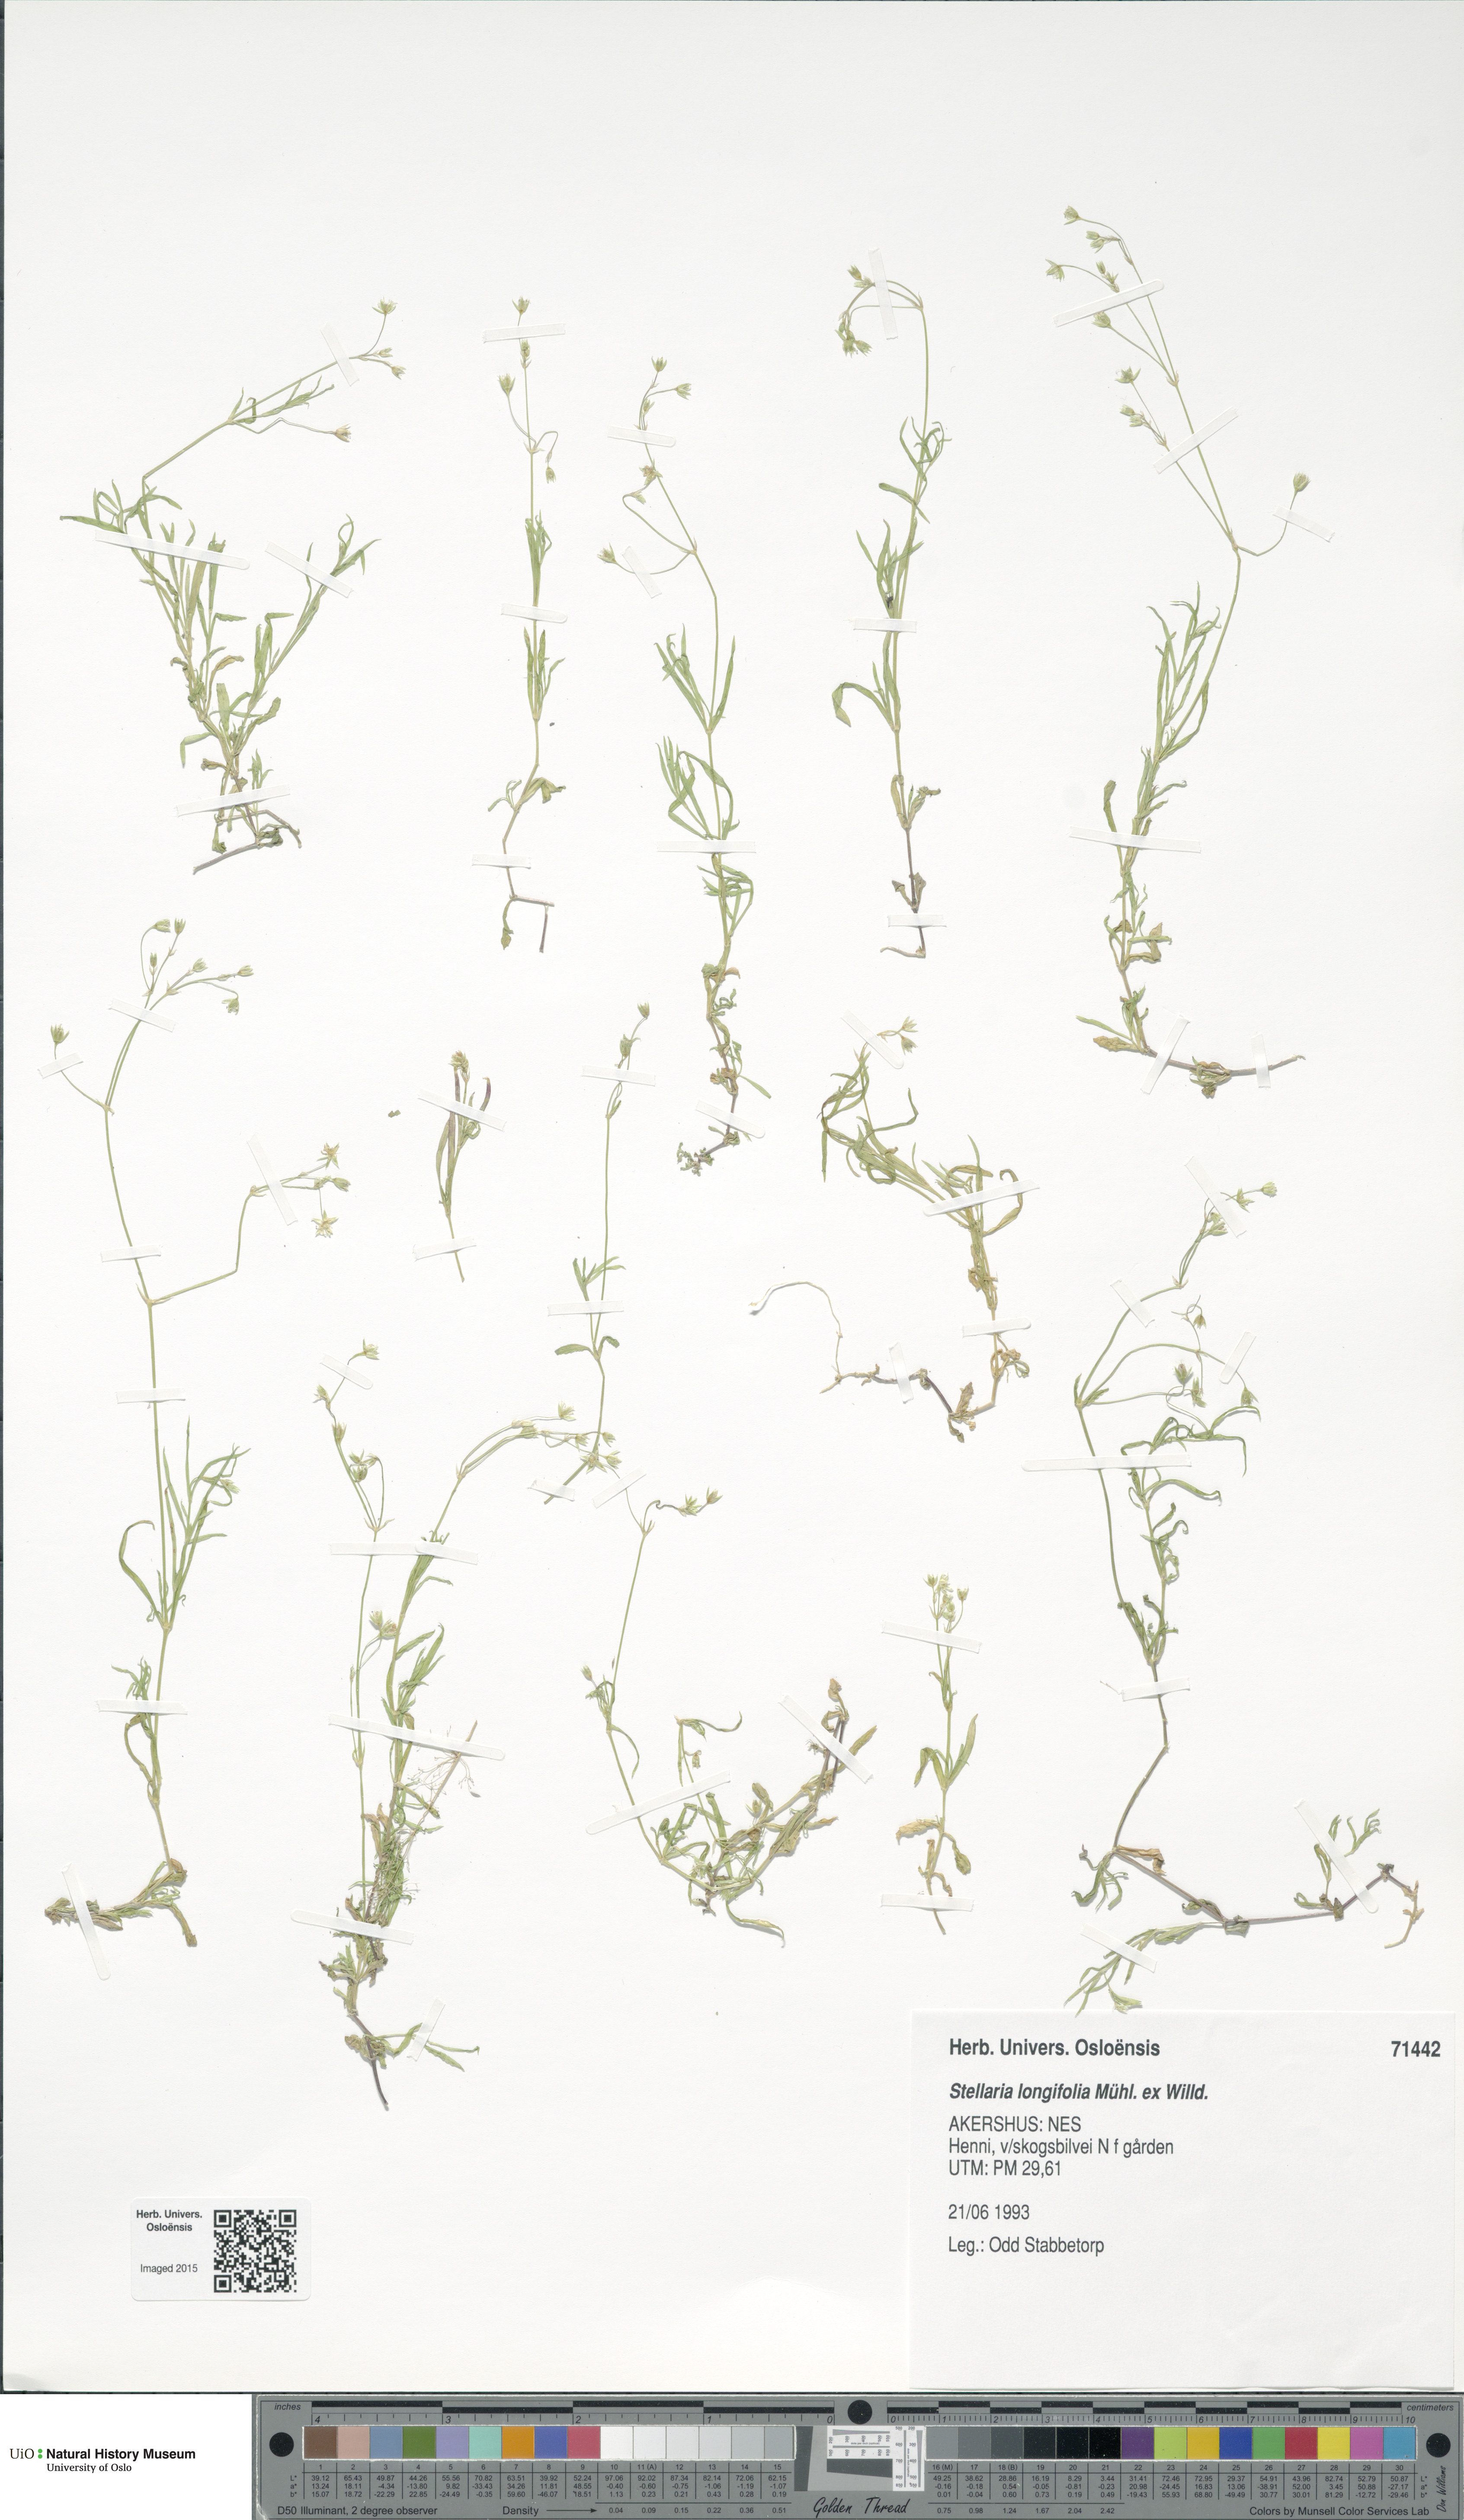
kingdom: Plantae
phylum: Tracheophyta
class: Magnoliopsida
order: Caryophyllales
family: Caryophyllaceae
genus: Stellaria
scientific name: Stellaria longifolia
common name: Long-leaved chickweed
